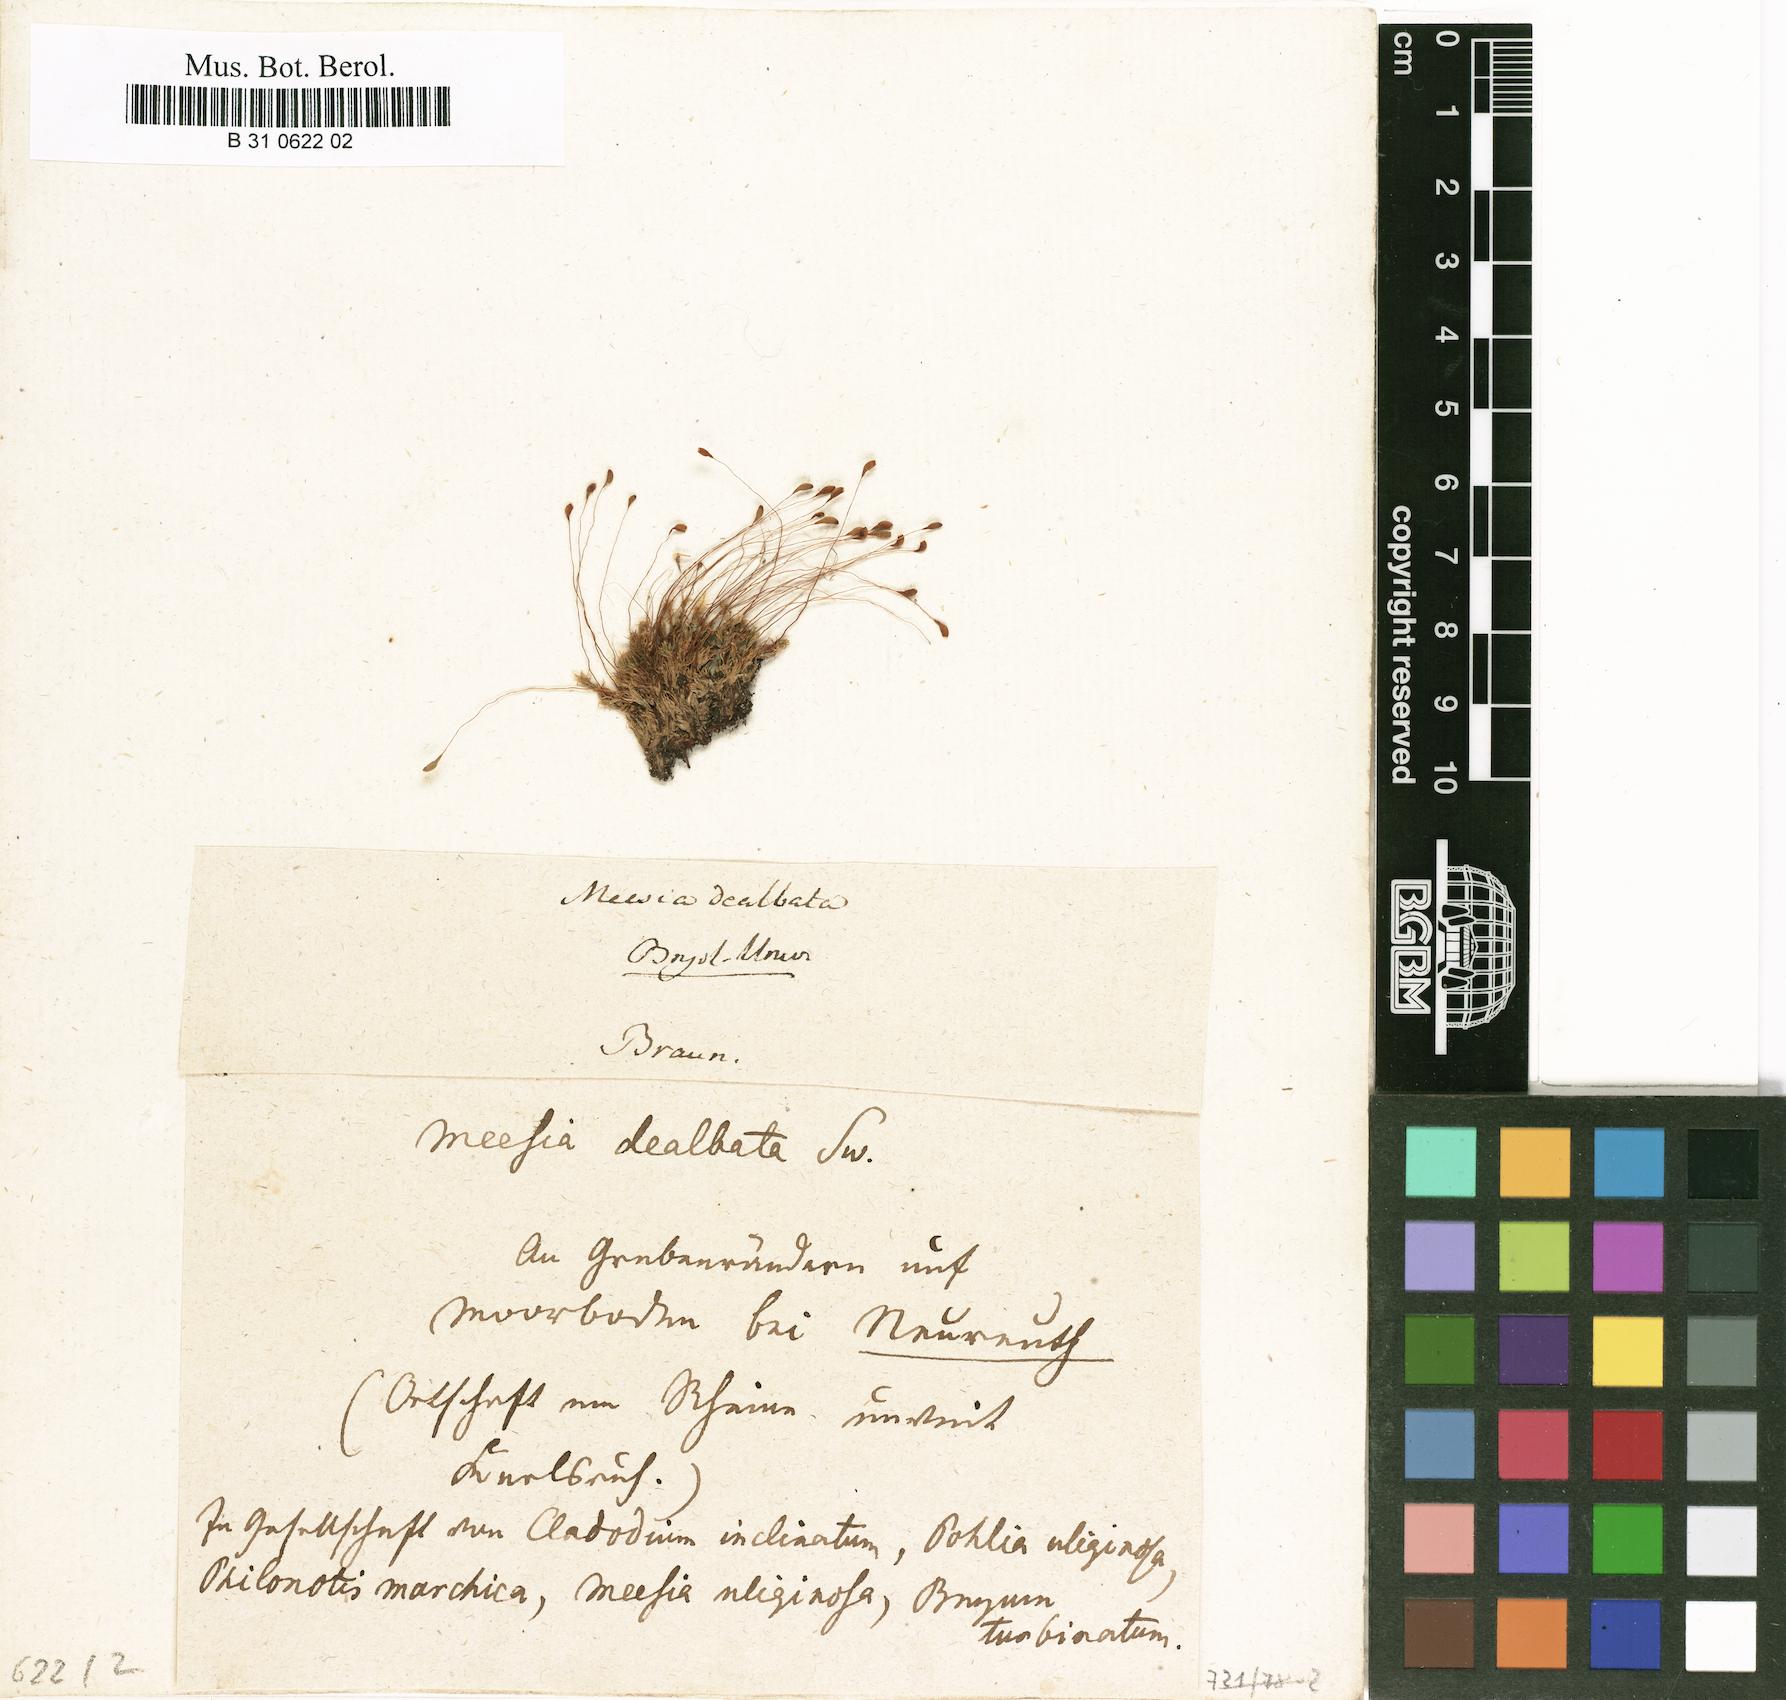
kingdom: Plantae
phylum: Bryophyta
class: Bryopsida
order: Splachnales
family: Meesiaceae
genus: Amblyodon
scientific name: Amblyodon dealbatus
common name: Short-toothed hump moss
